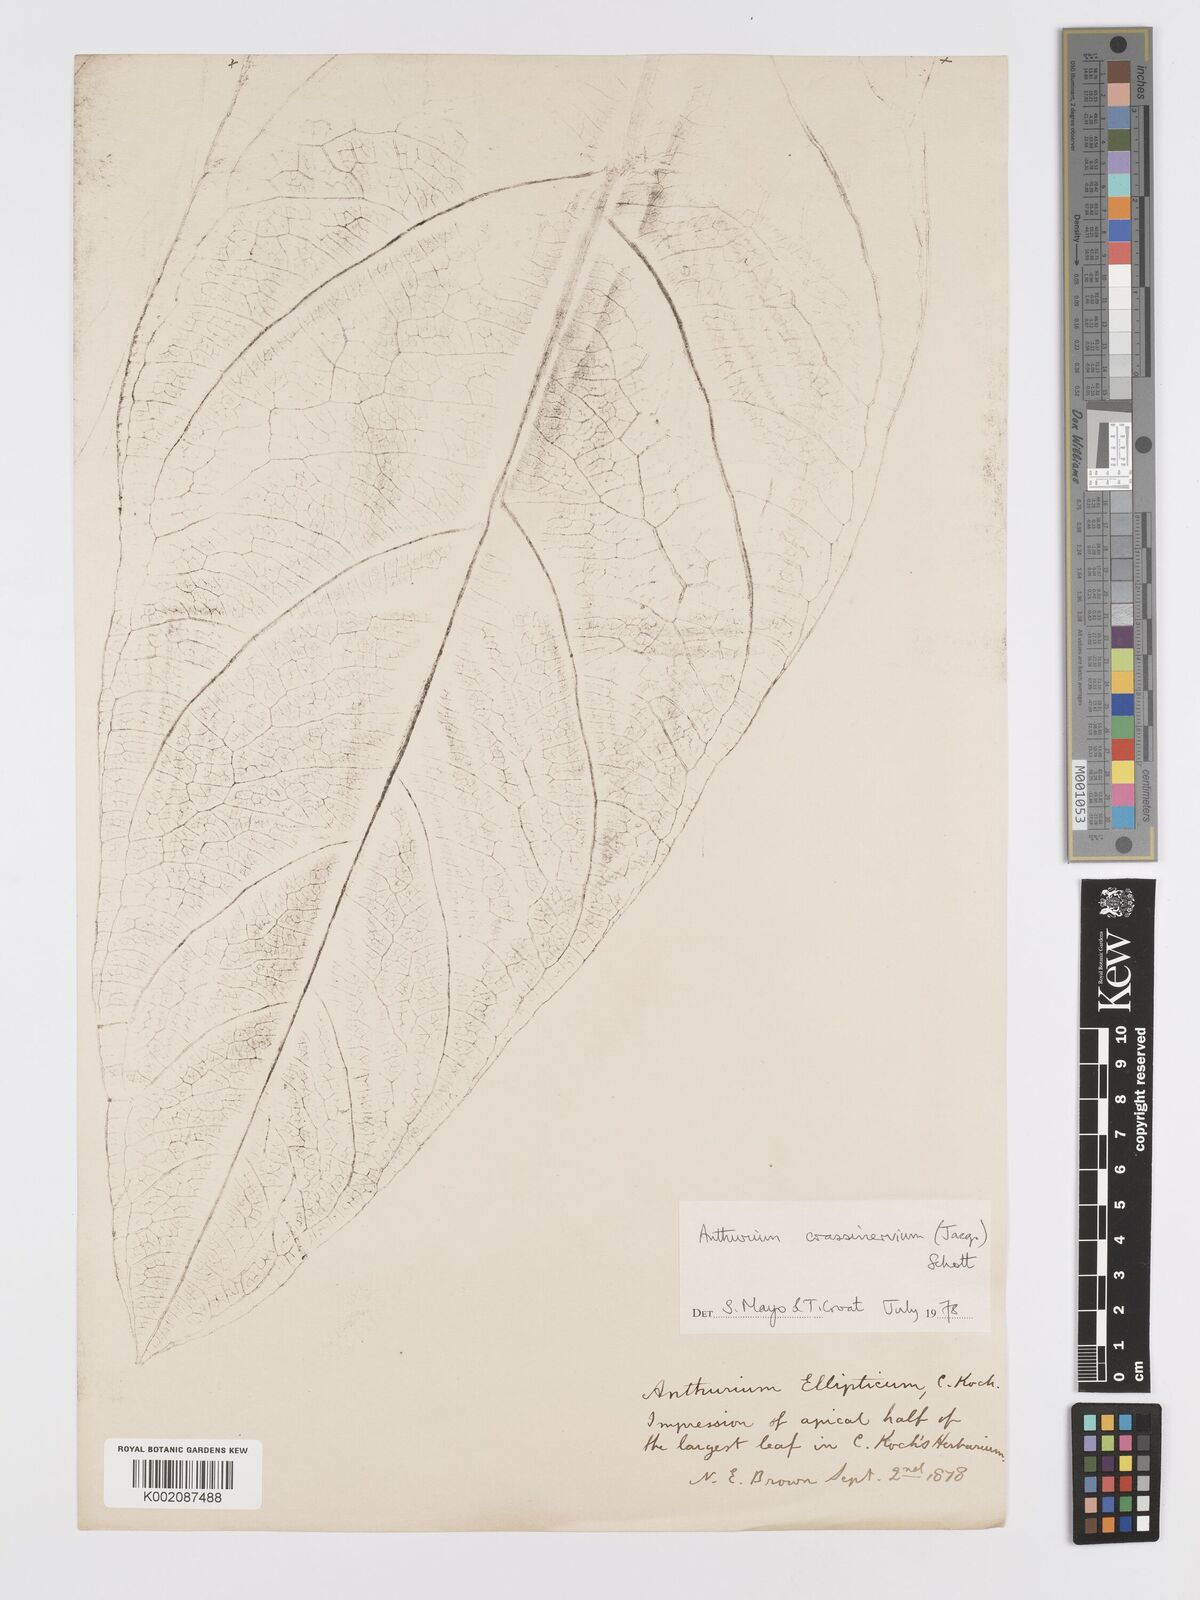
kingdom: Plantae
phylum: Tracheophyta
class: Liliopsida
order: Alismatales
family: Araceae
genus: Anthurium
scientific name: Anthurium crassinervium
